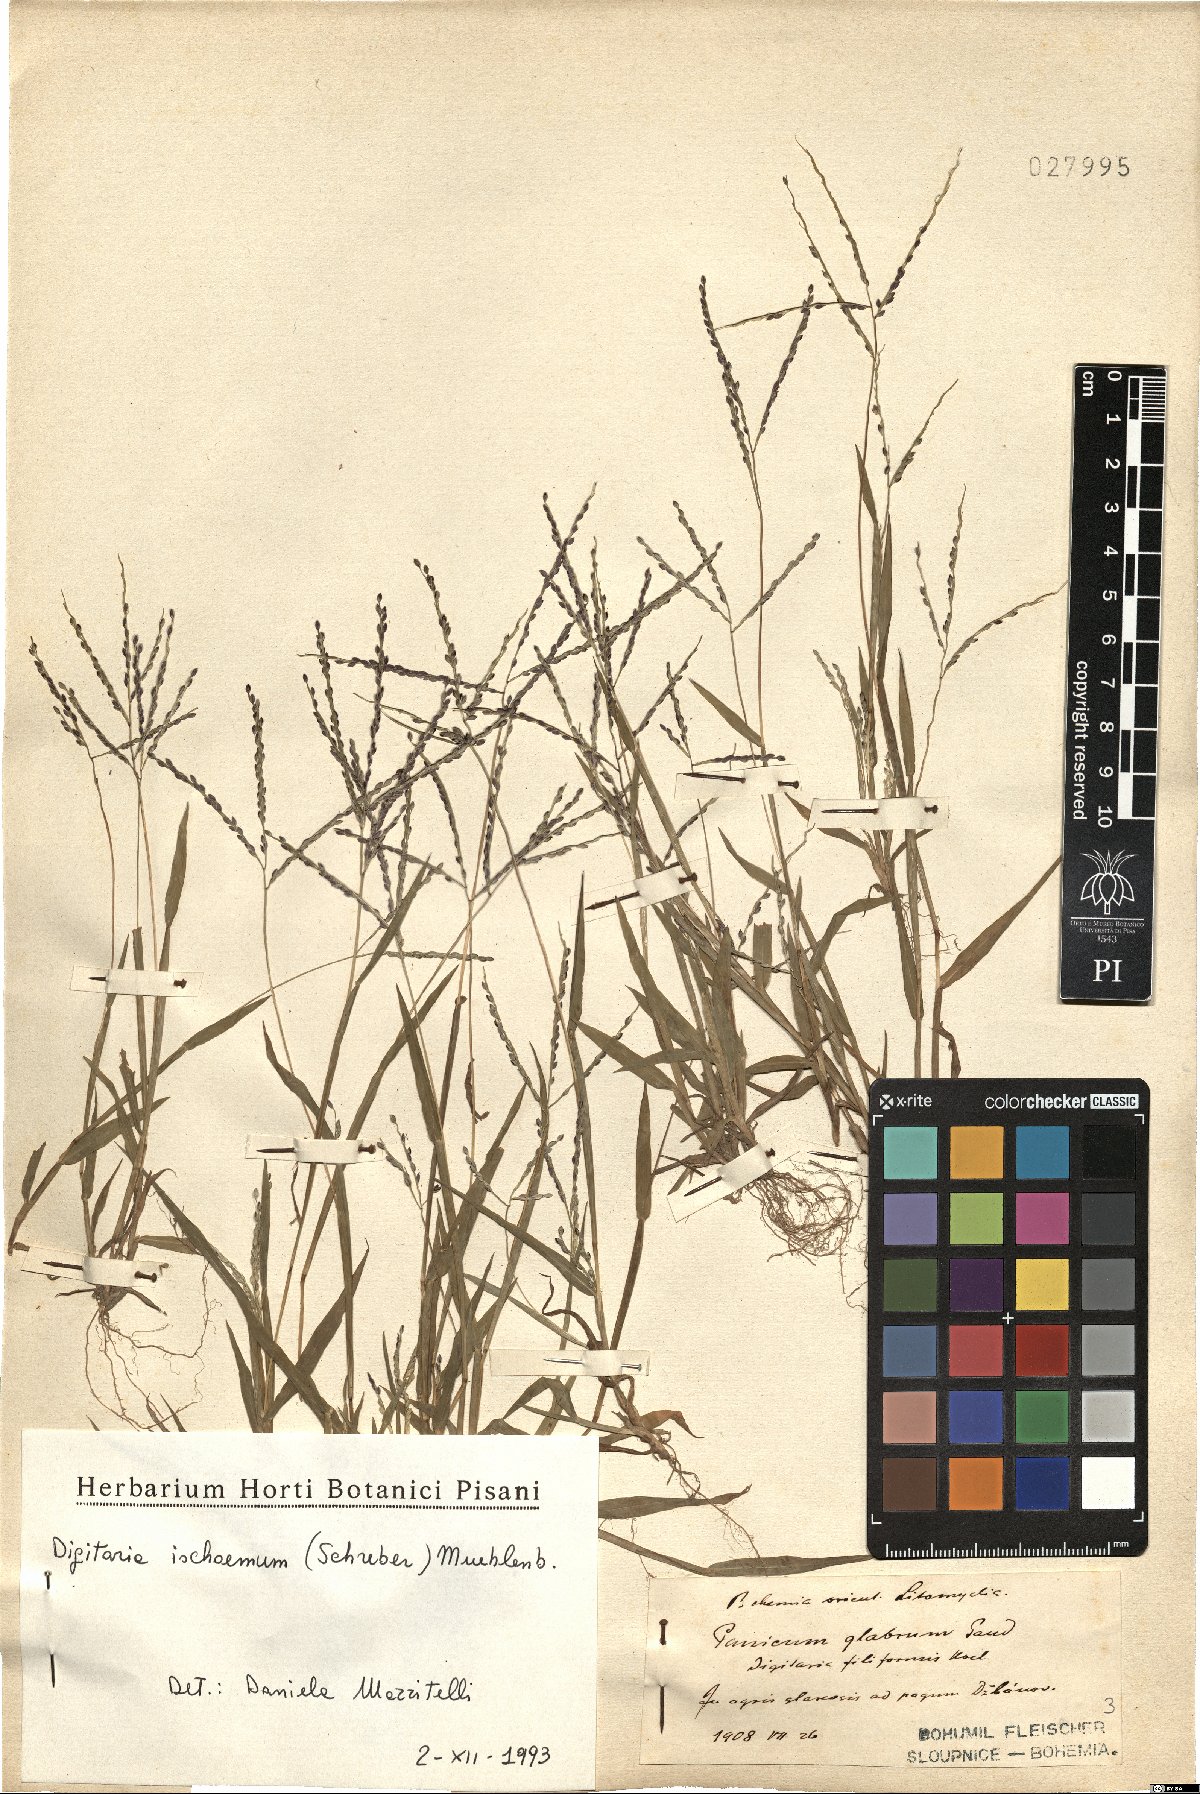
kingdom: Plantae
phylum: Tracheophyta
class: Liliopsida
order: Poales
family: Poaceae
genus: Digitaria
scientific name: Digitaria ischaemum
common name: Smooth crabgrass
